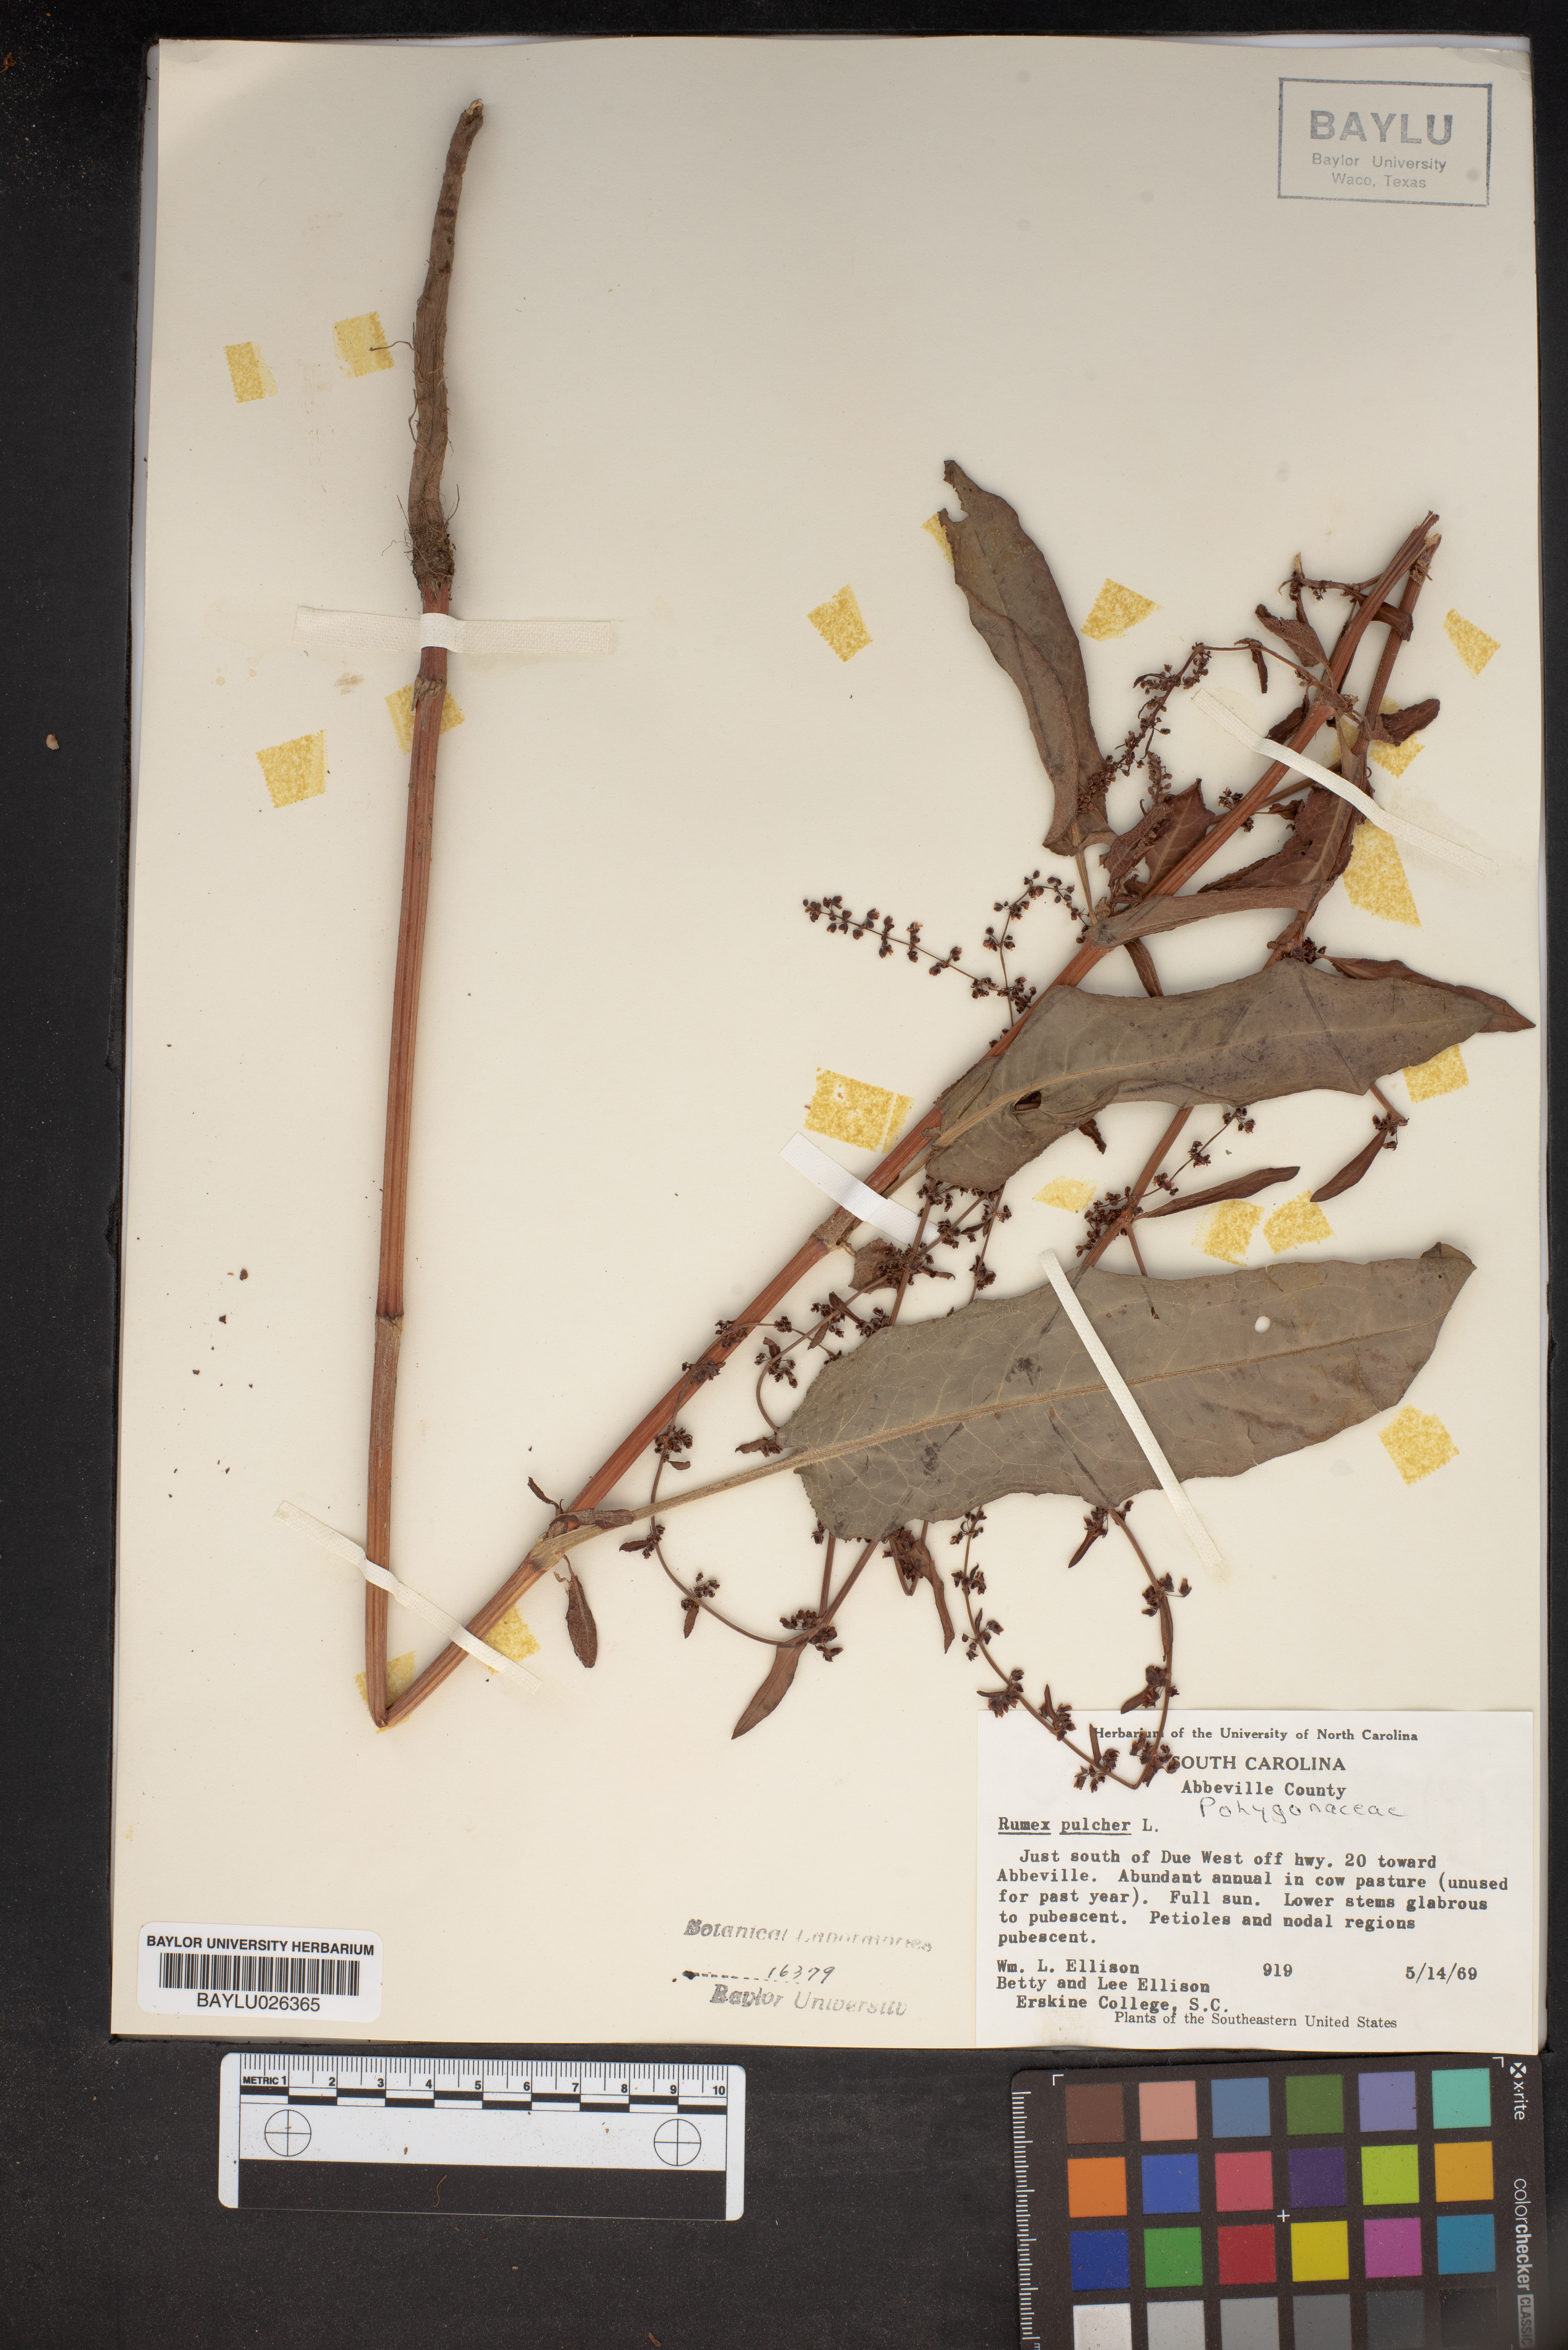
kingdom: Plantae
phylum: Tracheophyta
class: Magnoliopsida
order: Caryophyllales
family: Polygonaceae
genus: Rumex
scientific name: Rumex pulcher
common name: Fiddle dock
